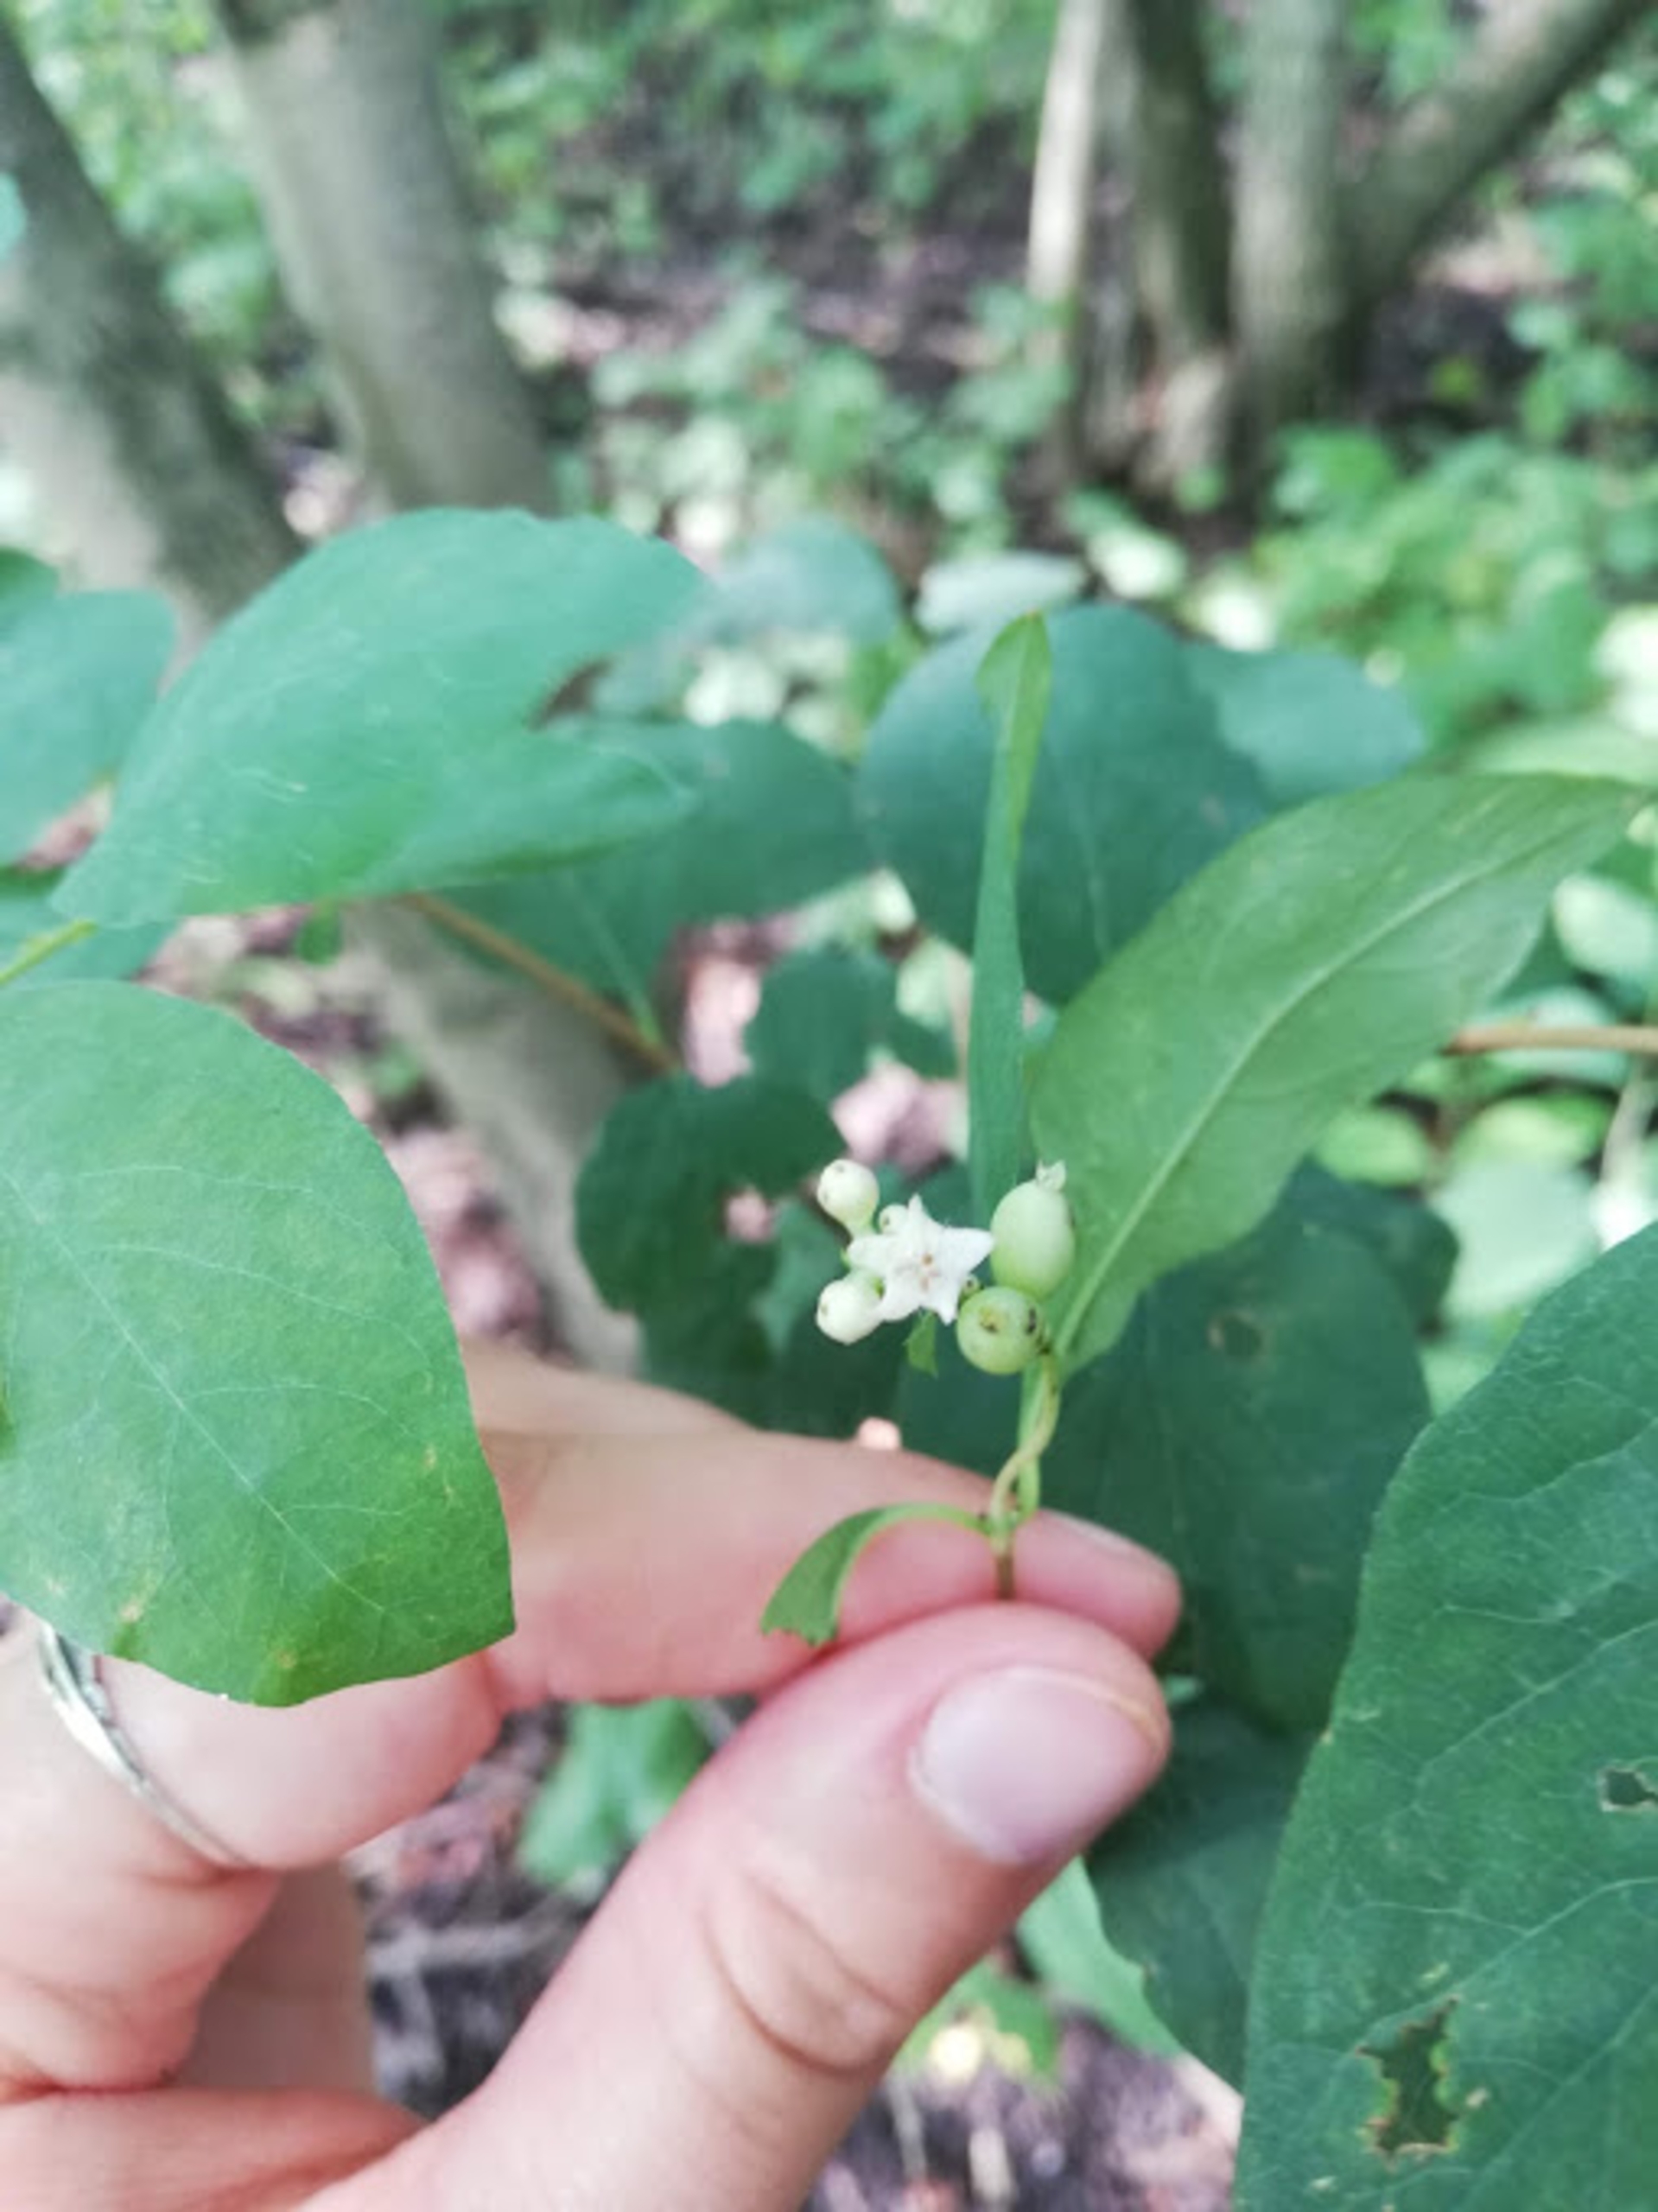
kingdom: Plantae
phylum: Tracheophyta
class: Magnoliopsida
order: Dipsacales
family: Caprifoliaceae
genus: Symphoricarpos
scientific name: Symphoricarpos albus
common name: Almindelig snebær
